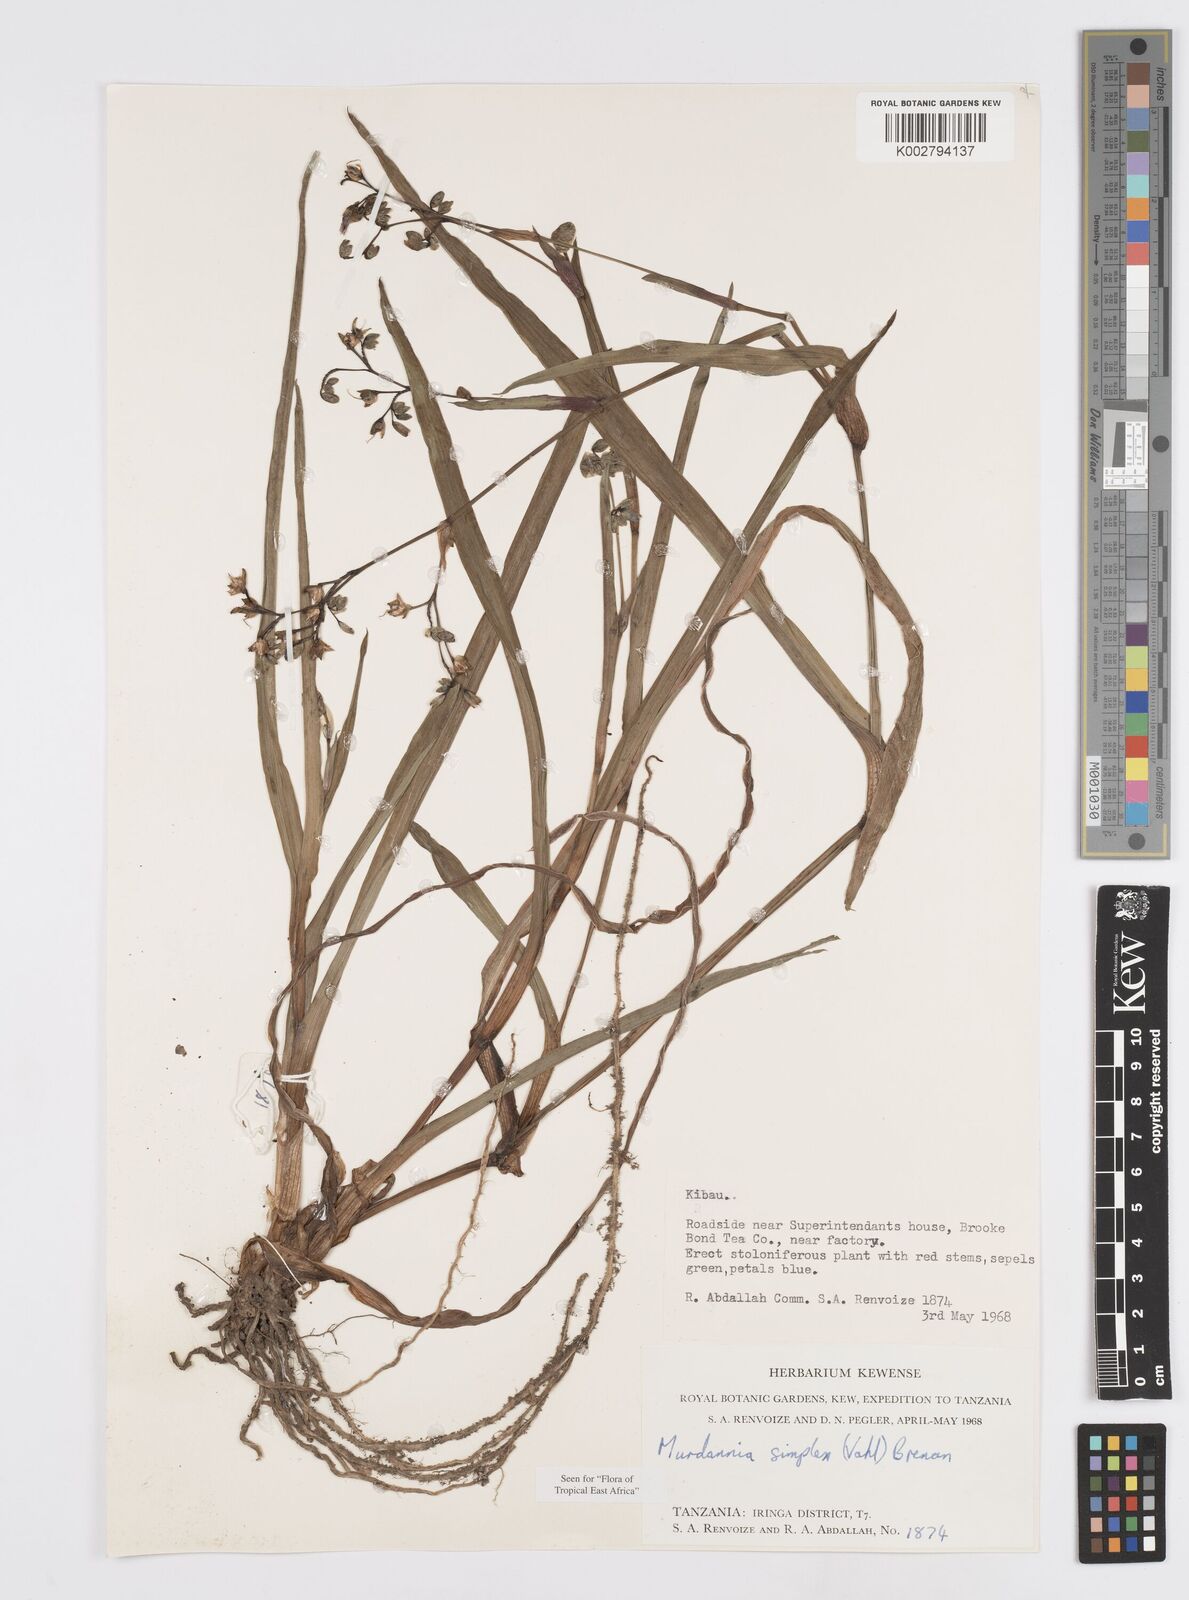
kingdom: Plantae
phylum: Tracheophyta
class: Liliopsida
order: Commelinales
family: Commelinaceae
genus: Murdannia
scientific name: Murdannia simplex
